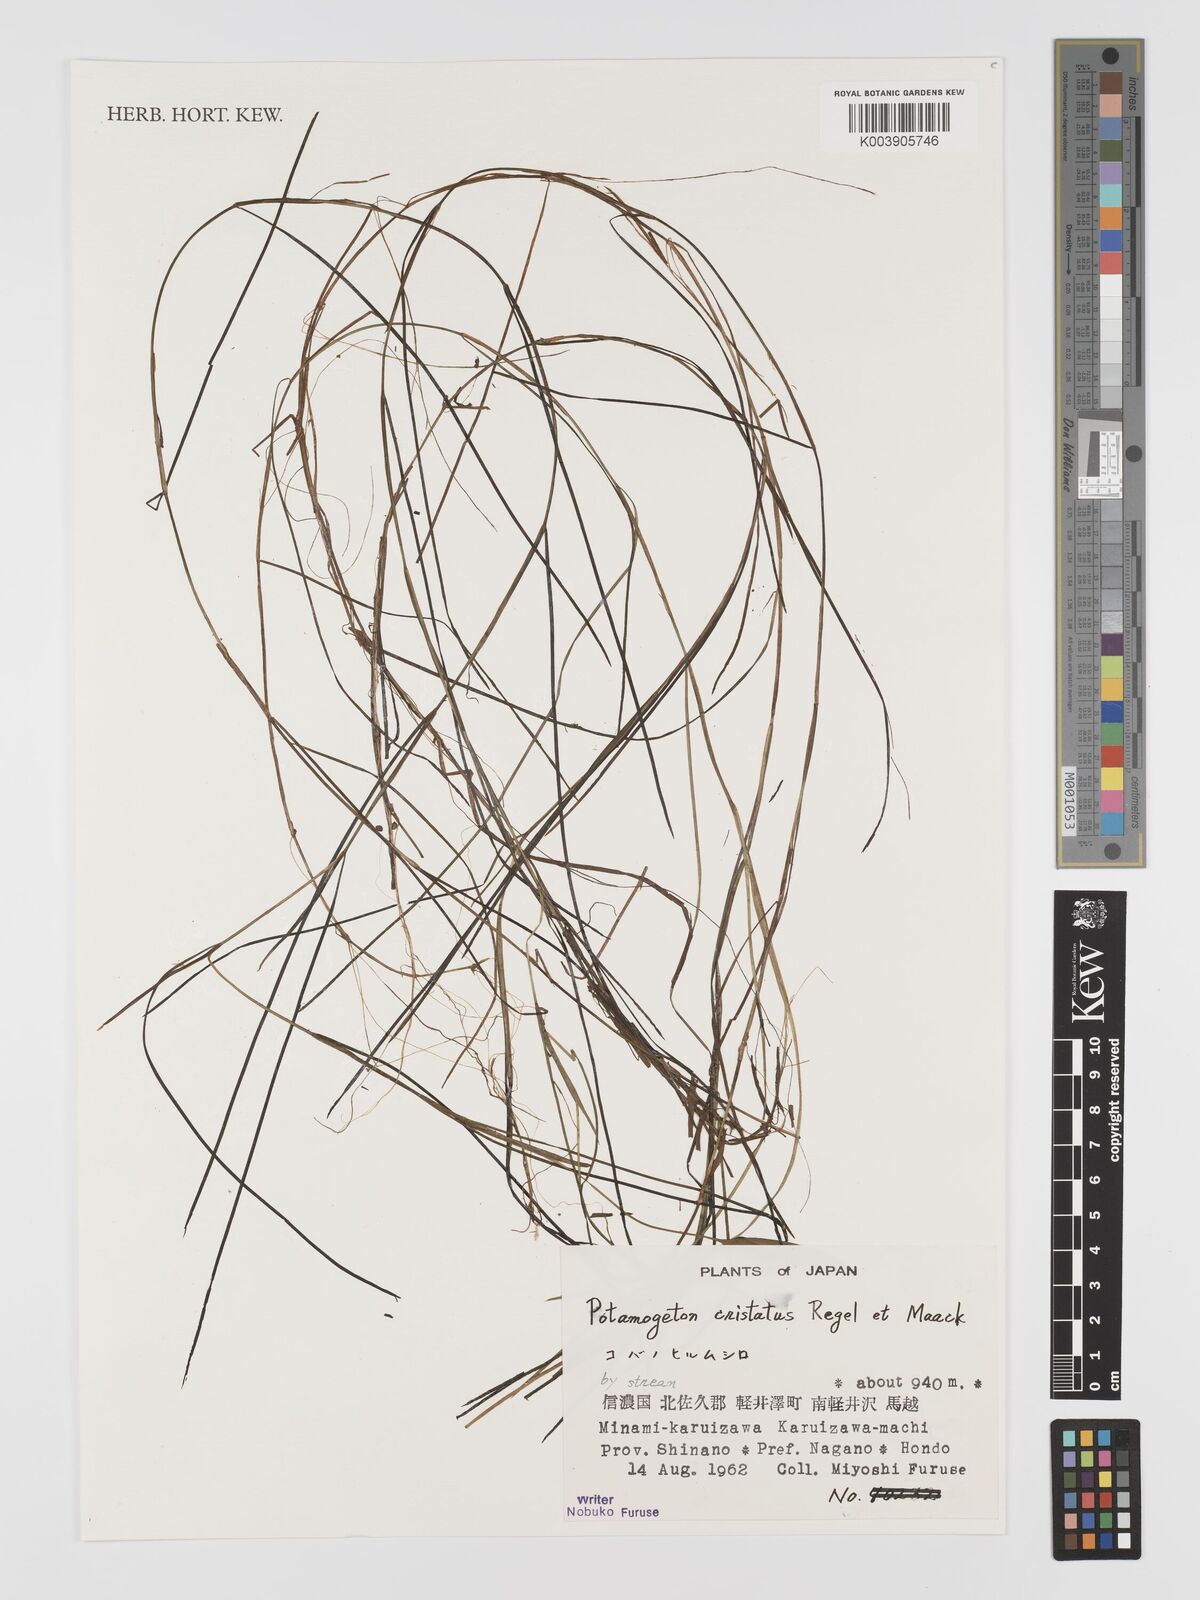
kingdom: Plantae
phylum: Tracheophyta
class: Liliopsida
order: Alismatales
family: Potamogetonaceae
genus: Potamogeton
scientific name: Potamogeton cristatus
